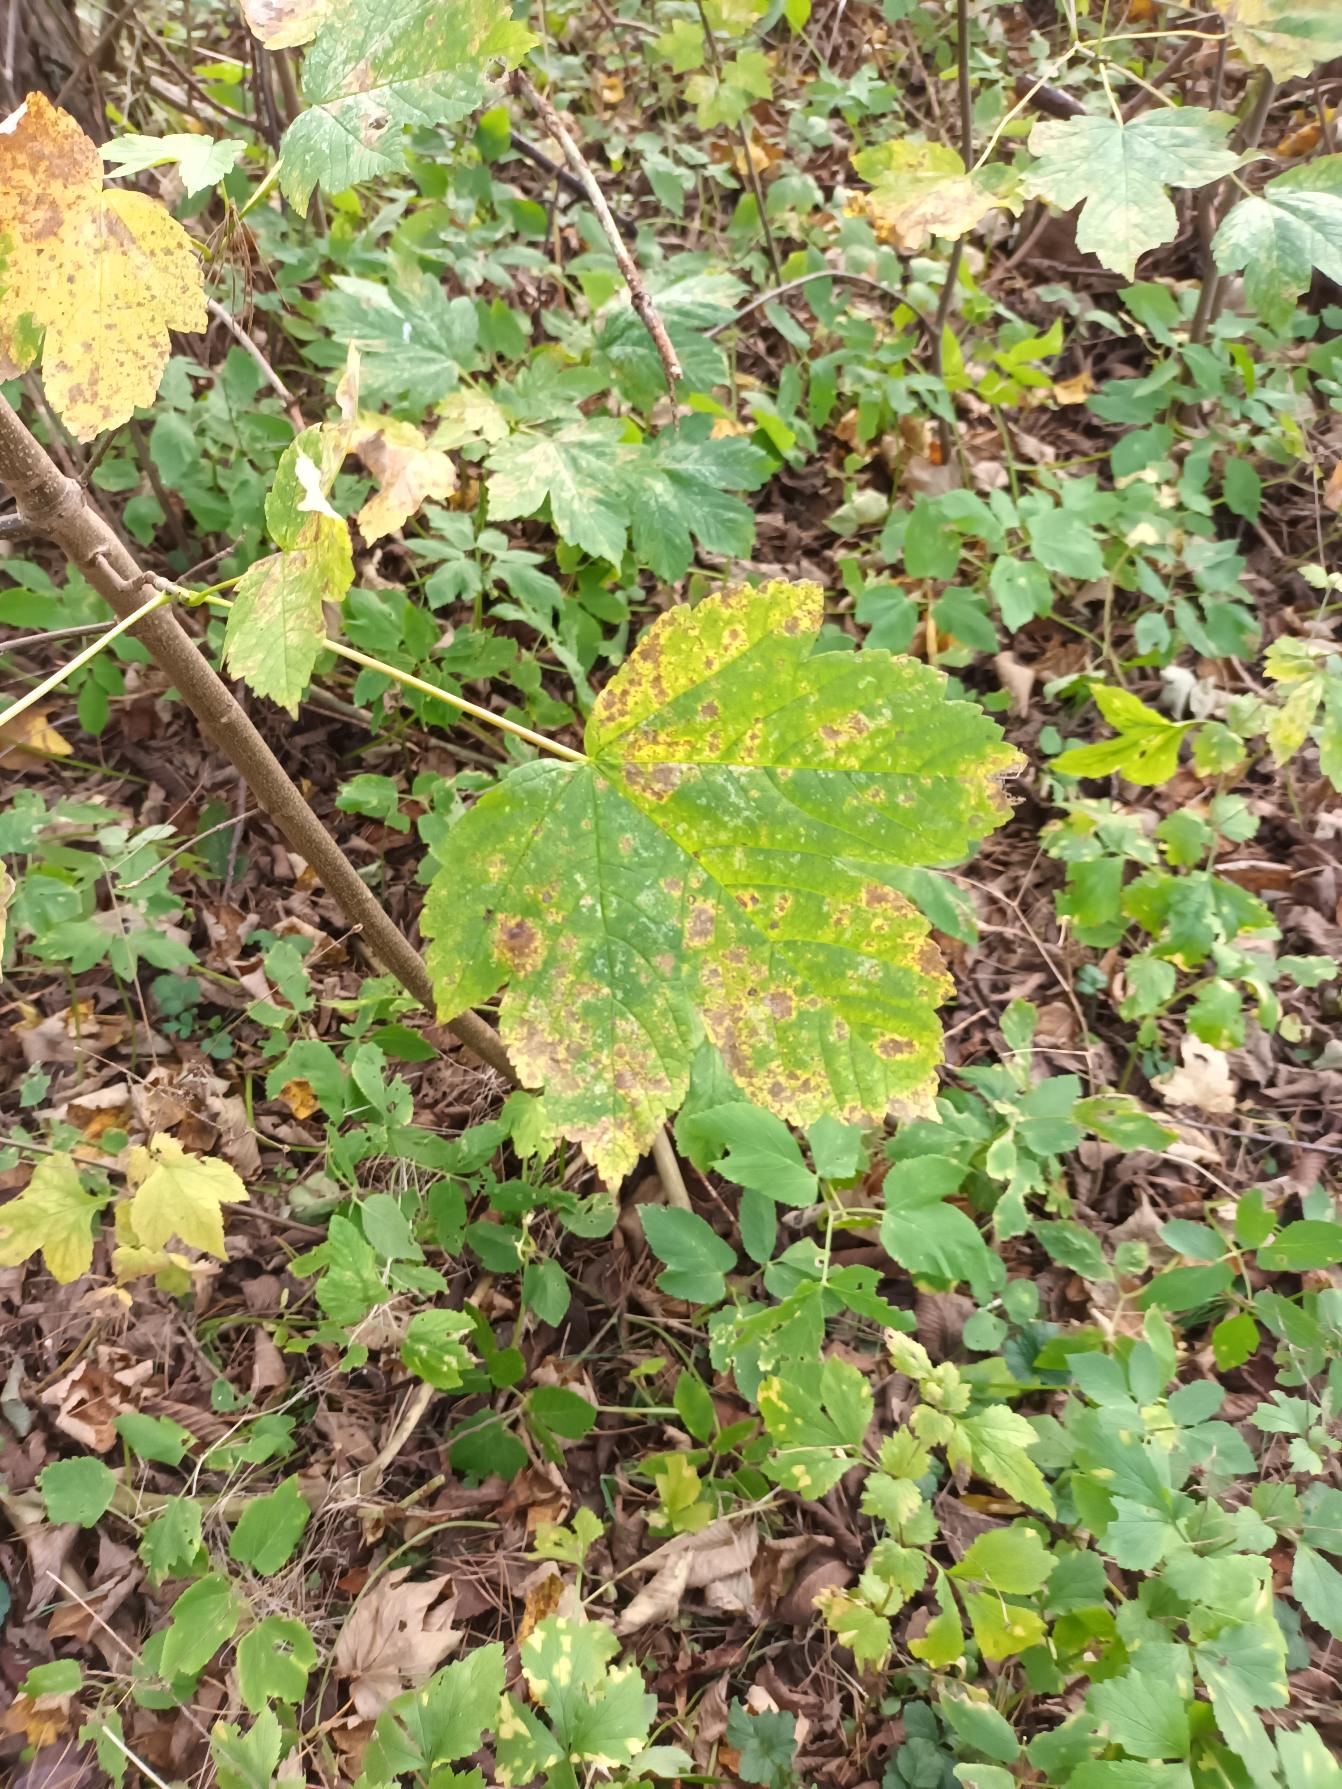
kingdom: Plantae
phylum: Tracheophyta
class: Magnoliopsida
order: Sapindales
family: Sapindaceae
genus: Acer
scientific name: Acer pseudoplatanus
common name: Ahorn
